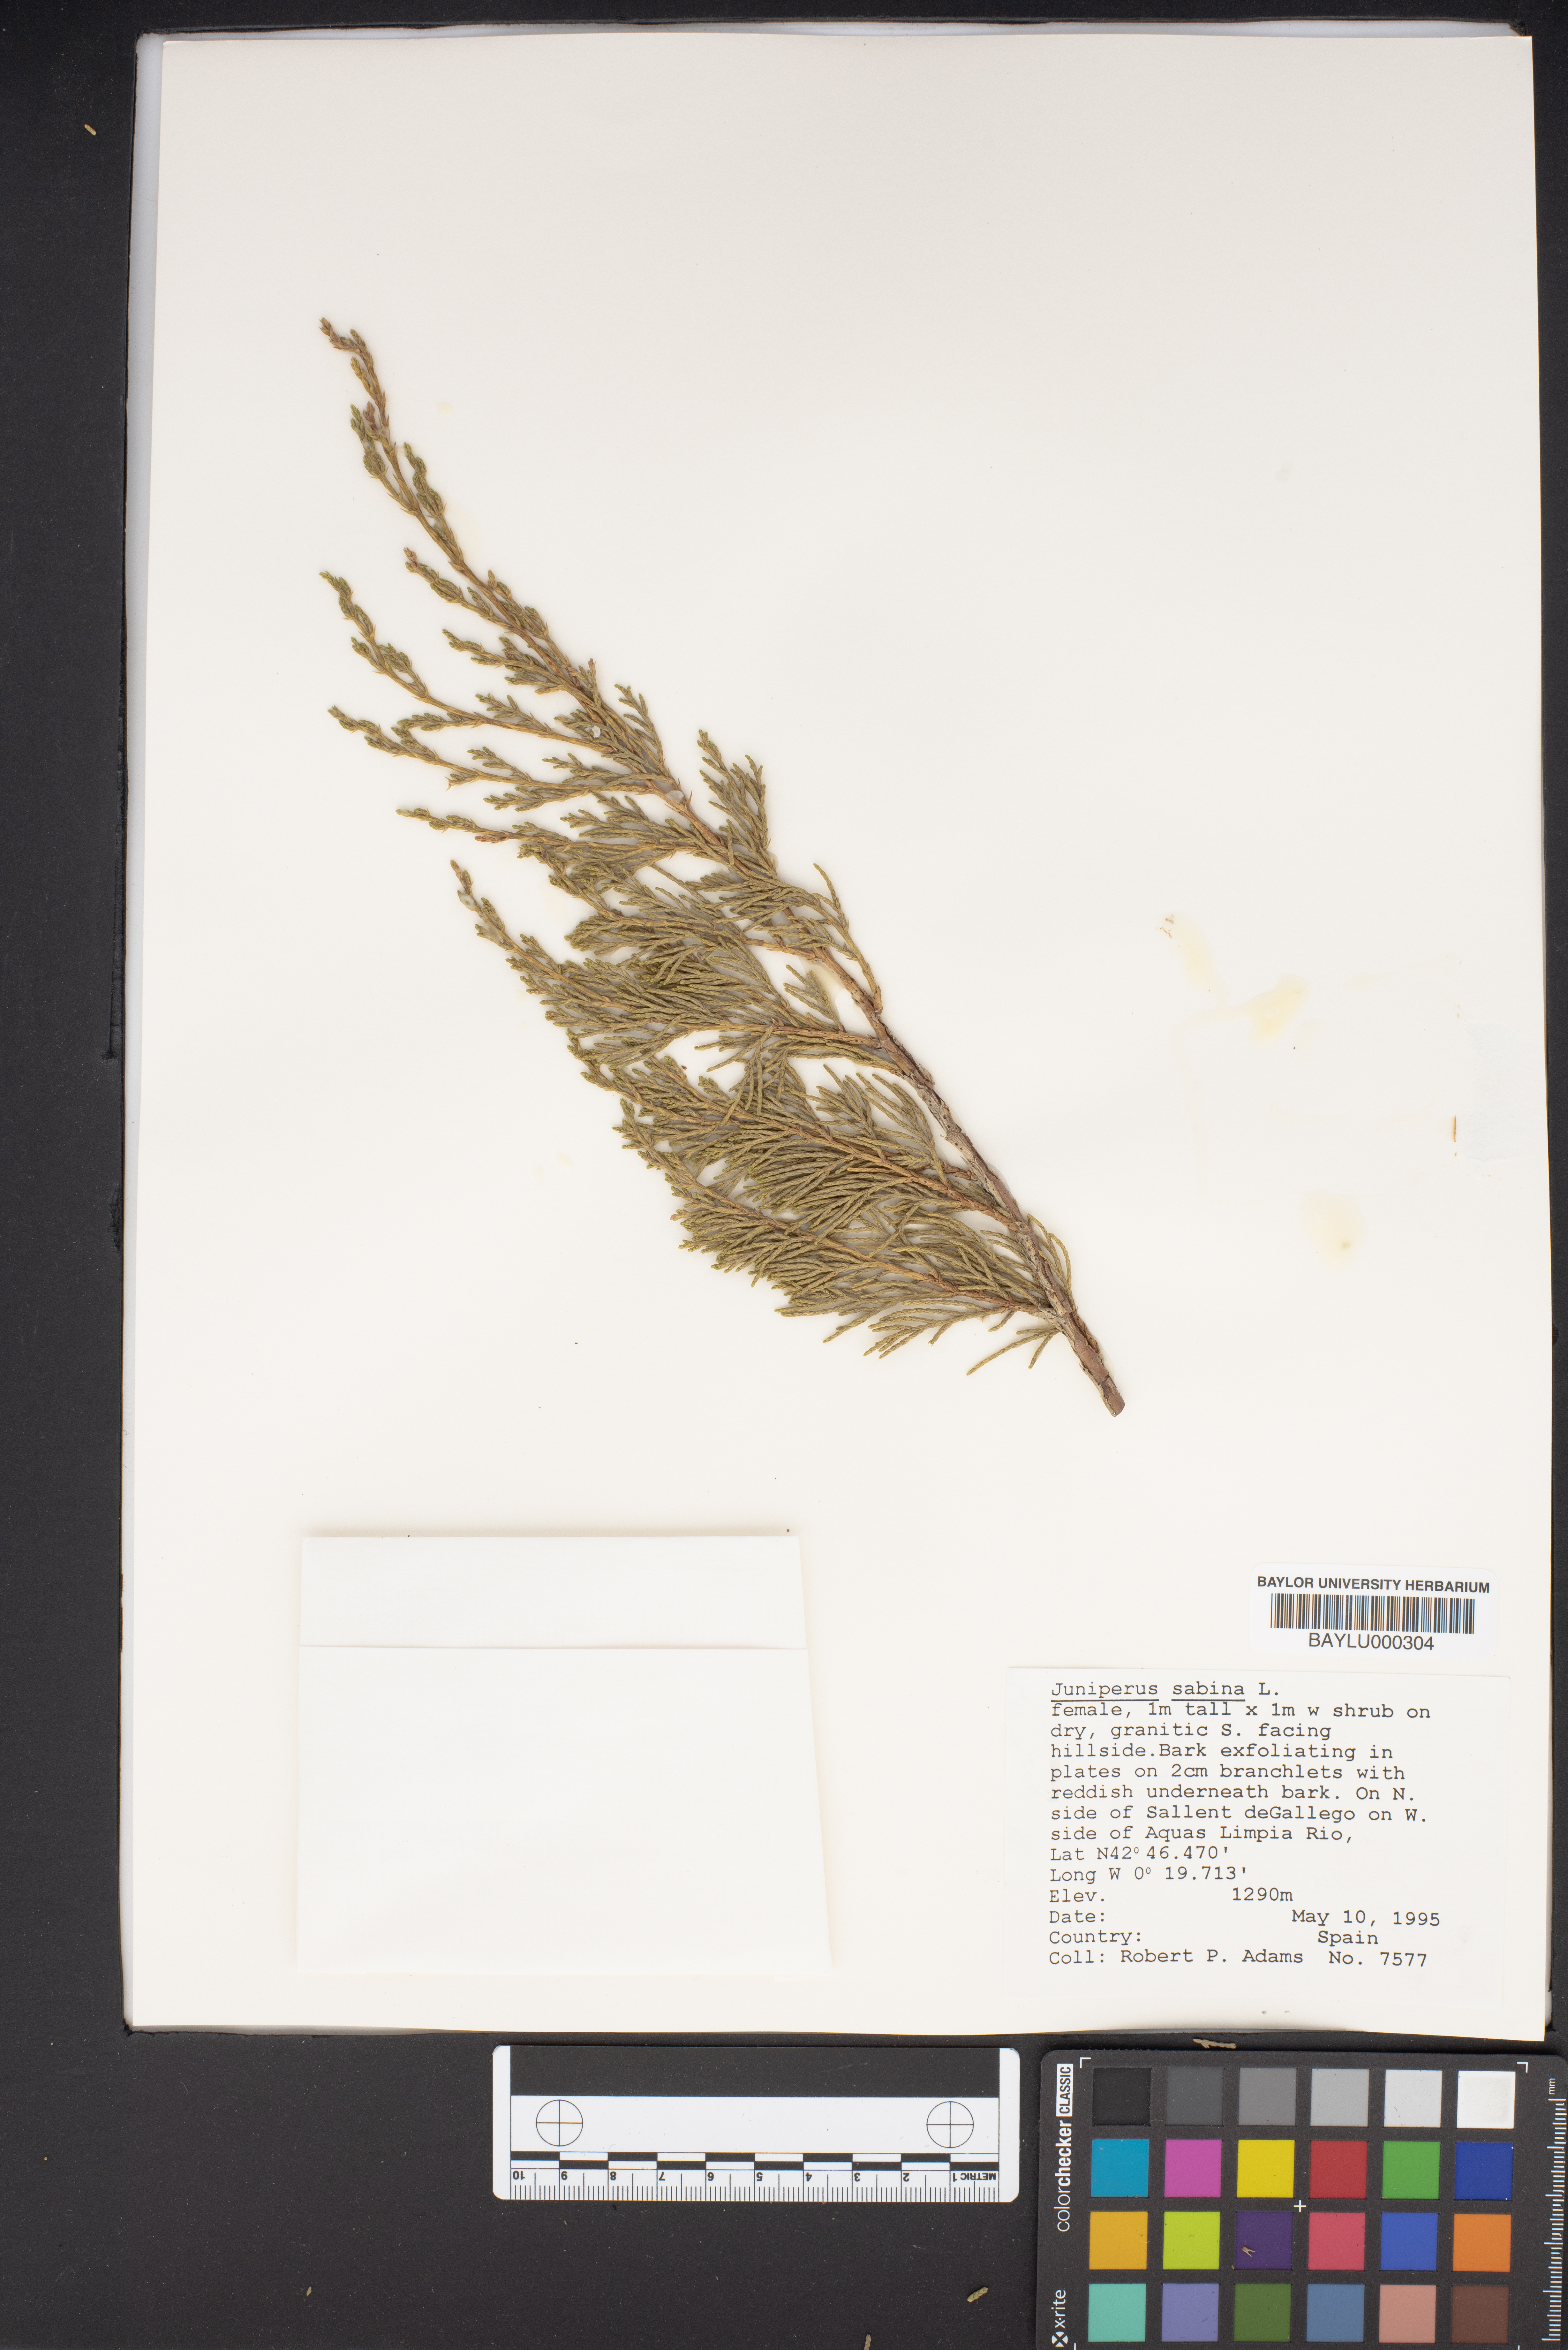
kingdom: Plantae
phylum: Tracheophyta
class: Pinopsida
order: Pinales
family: Cupressaceae
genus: Juniperus
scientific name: Juniperus sabina
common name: Savin
